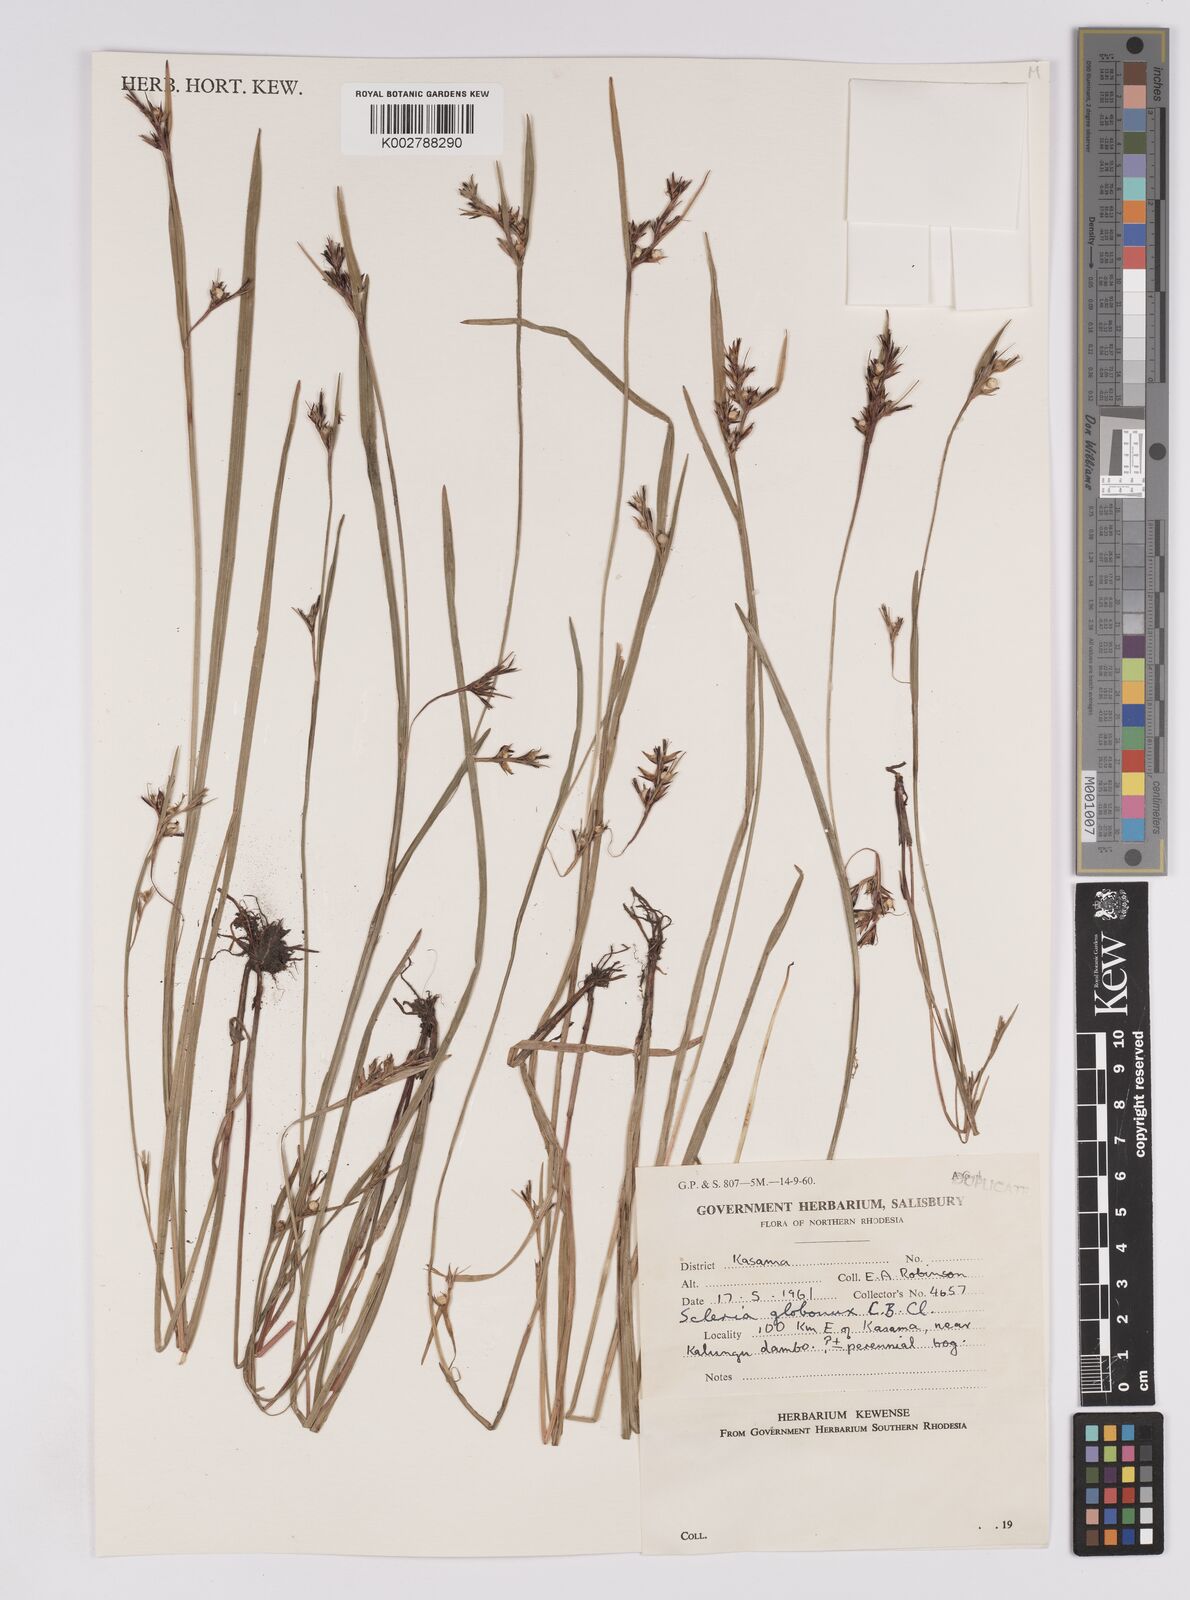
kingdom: Plantae
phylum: Tracheophyta
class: Liliopsida
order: Poales
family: Cyperaceae
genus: Scleria
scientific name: Scleria globonux
